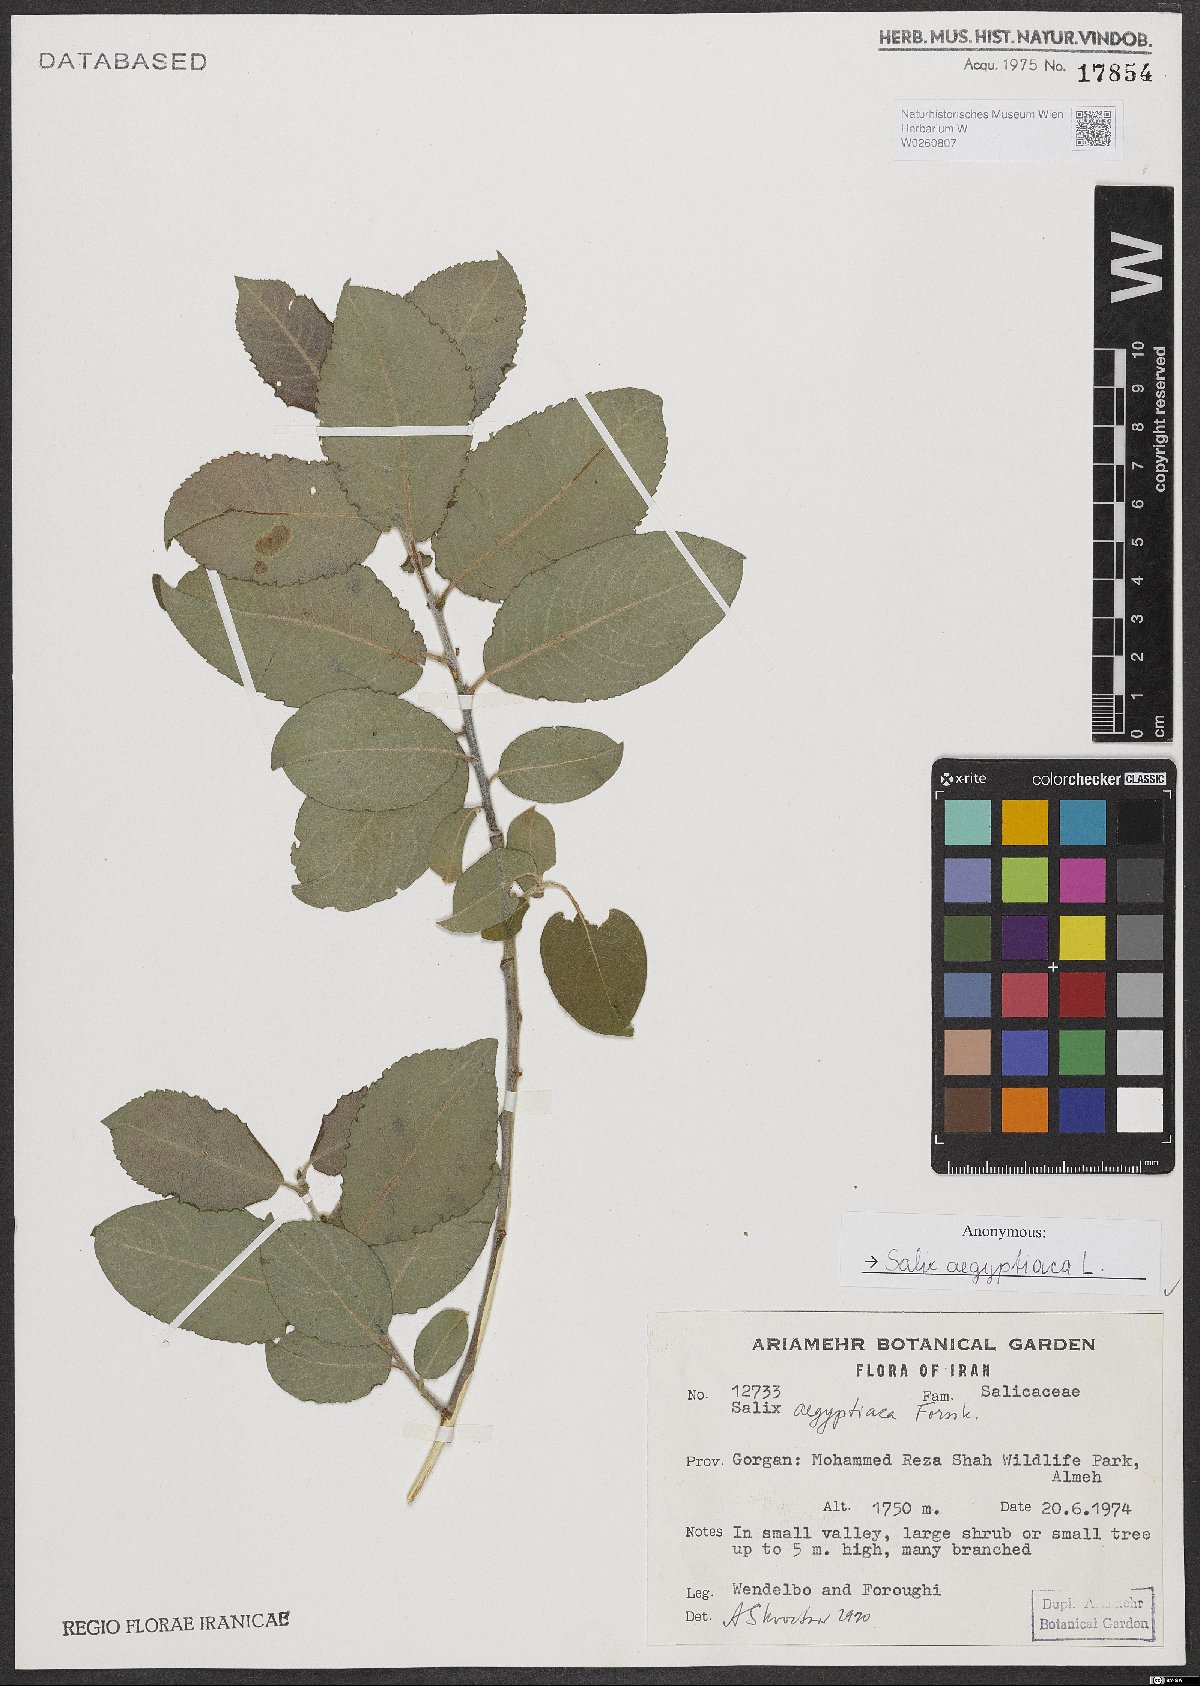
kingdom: Plantae
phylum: Tracheophyta
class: Magnoliopsida
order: Malpighiales
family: Salicaceae
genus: Salix
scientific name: Salix aegyptiaca
